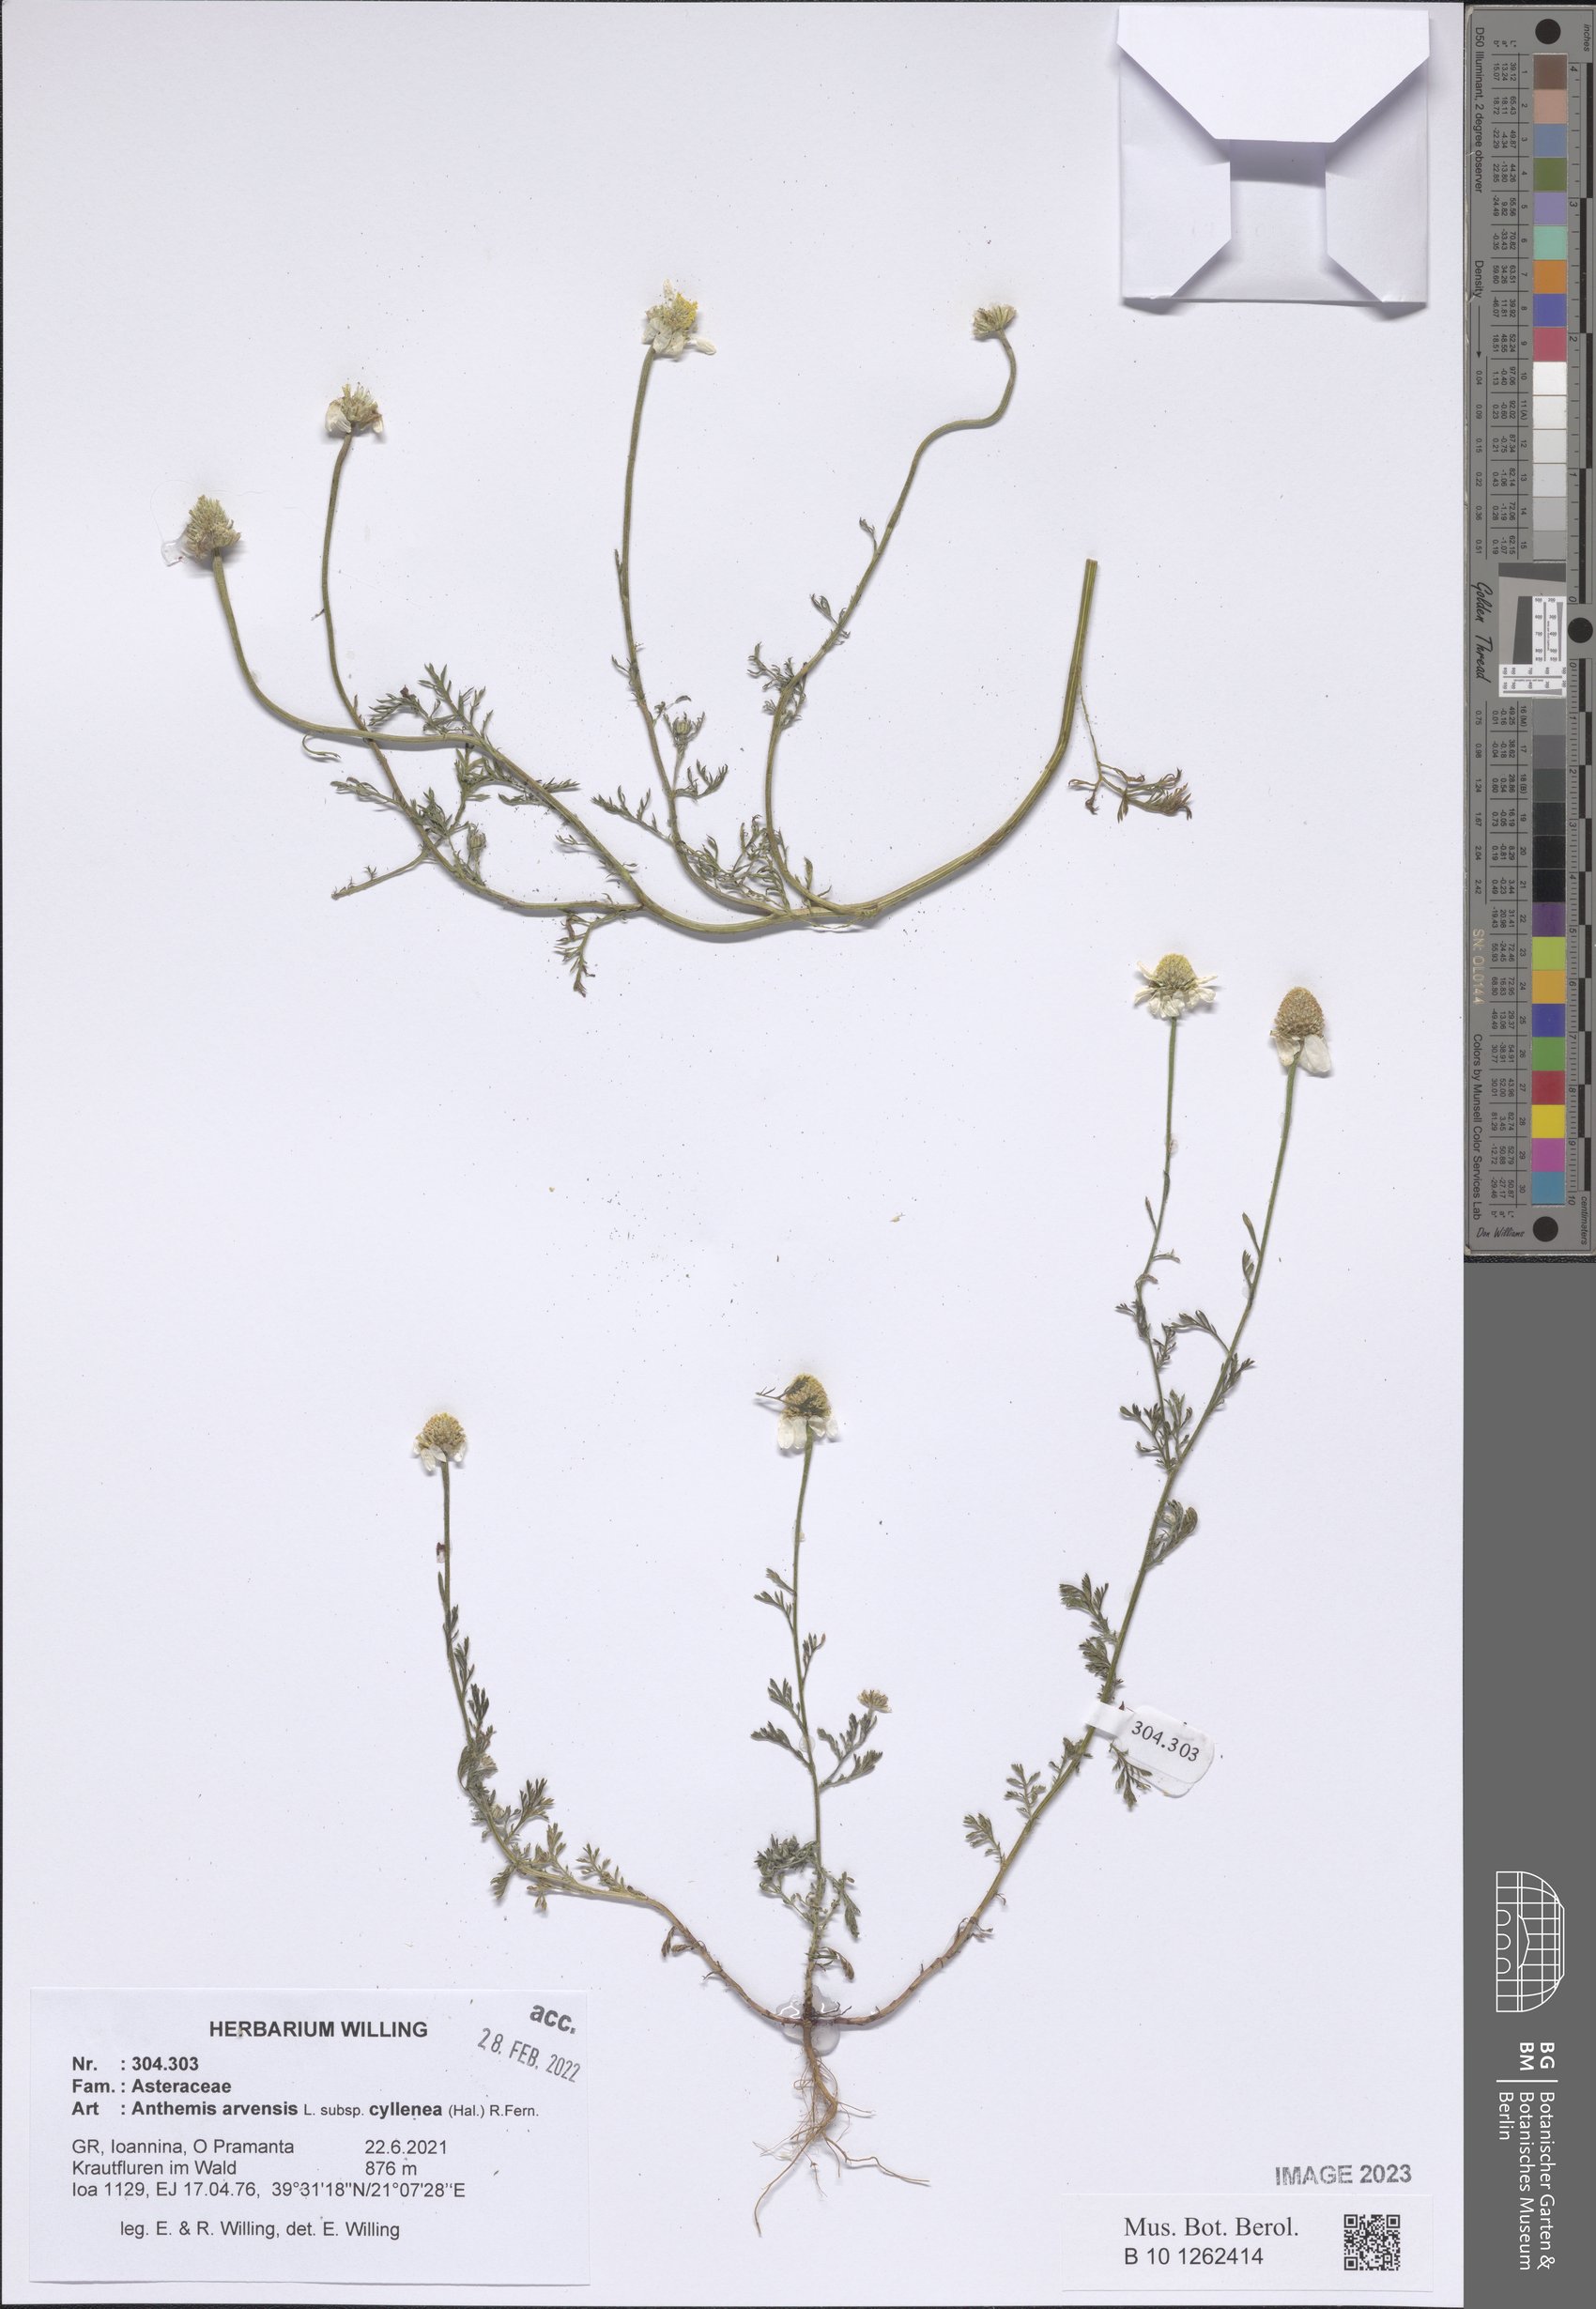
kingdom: Plantae
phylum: Tracheophyta
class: Magnoliopsida
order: Asterales
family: Asteraceae
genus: Anthemis
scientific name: Anthemis arvensis
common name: Corn chamomile
